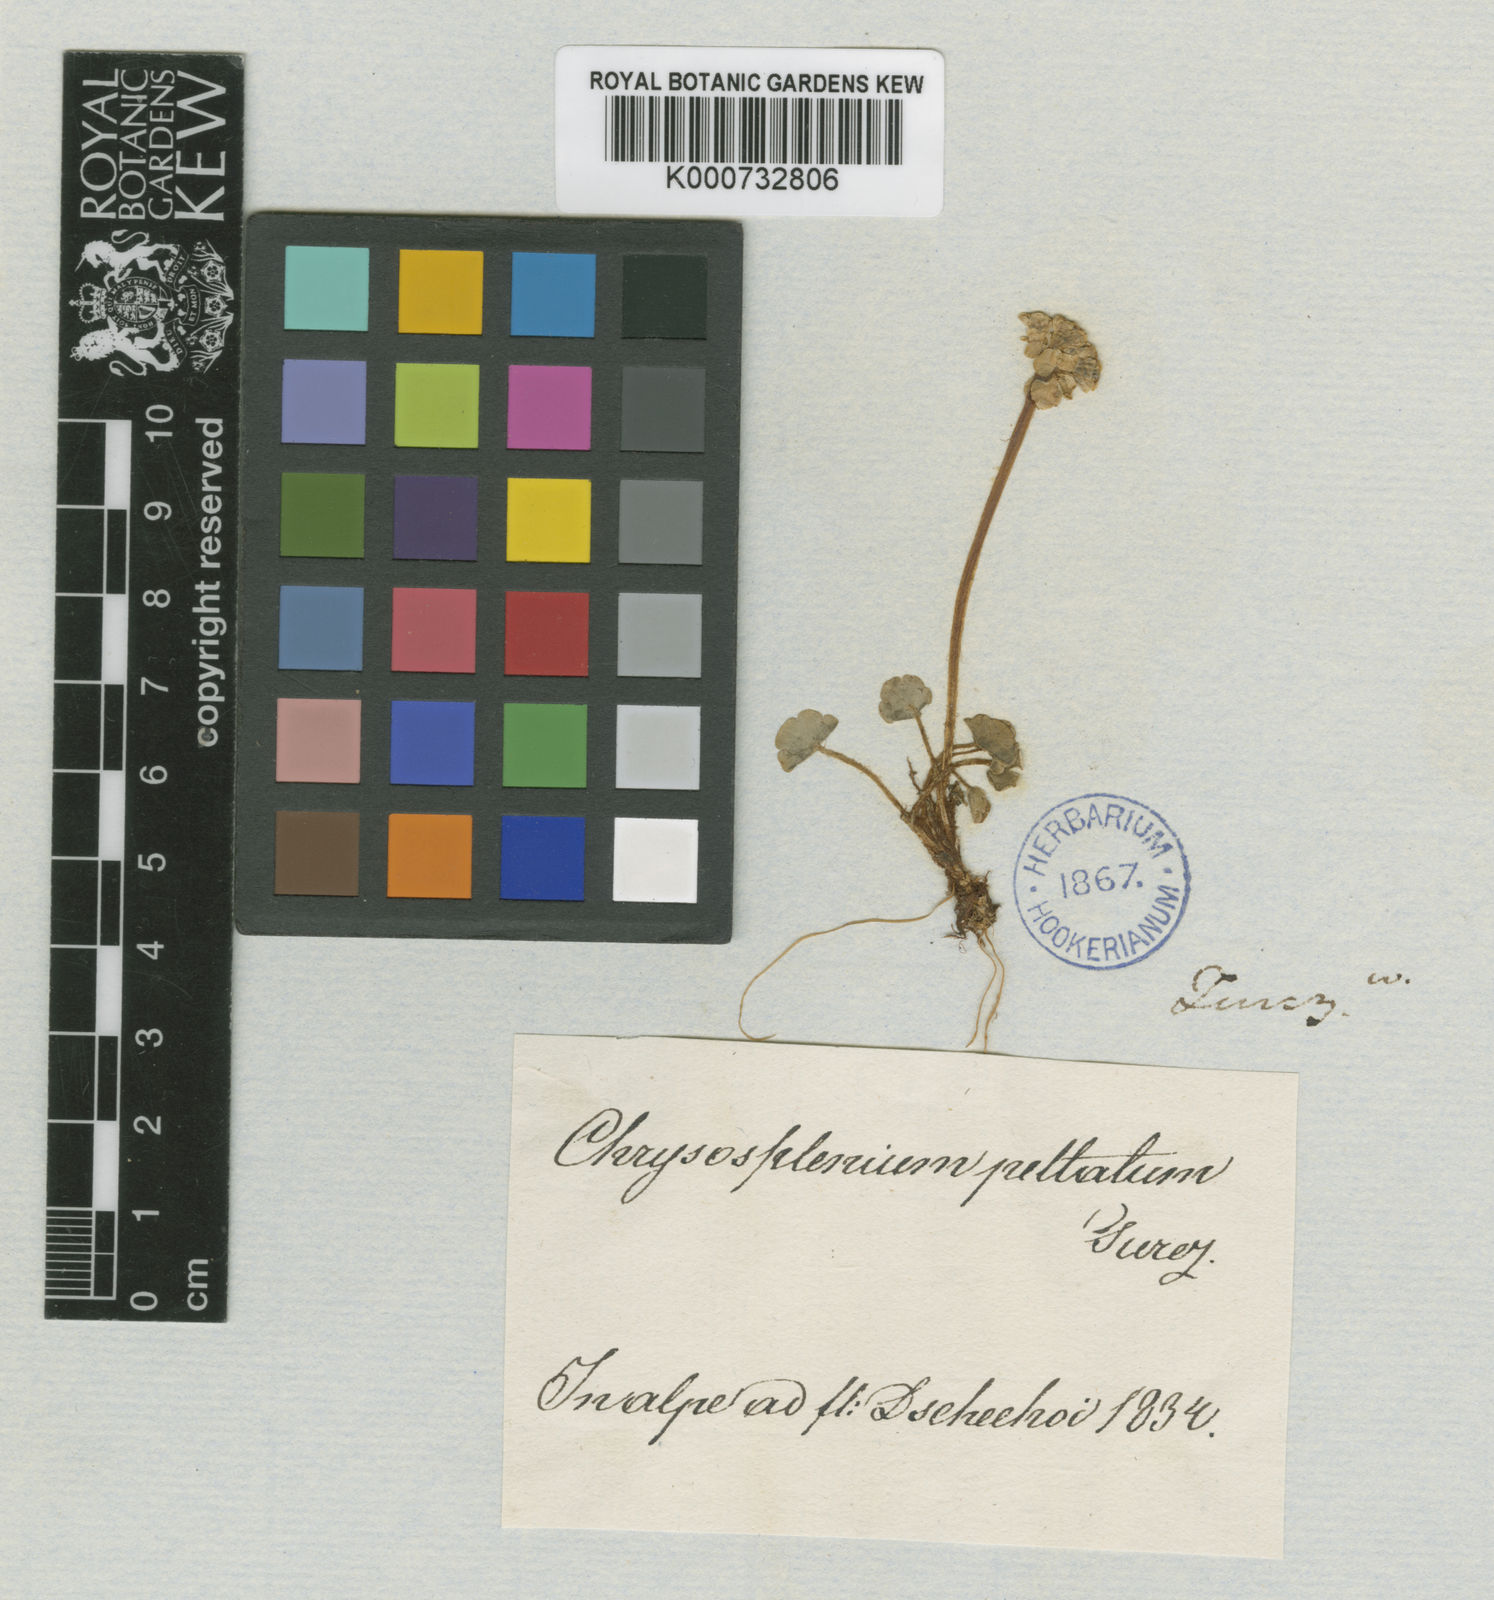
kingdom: Plantae
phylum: Tracheophyta
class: Magnoliopsida
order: Saxifragales
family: Saxifragaceae
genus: Chrysosplenium
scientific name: Chrysosplenium peltatum
